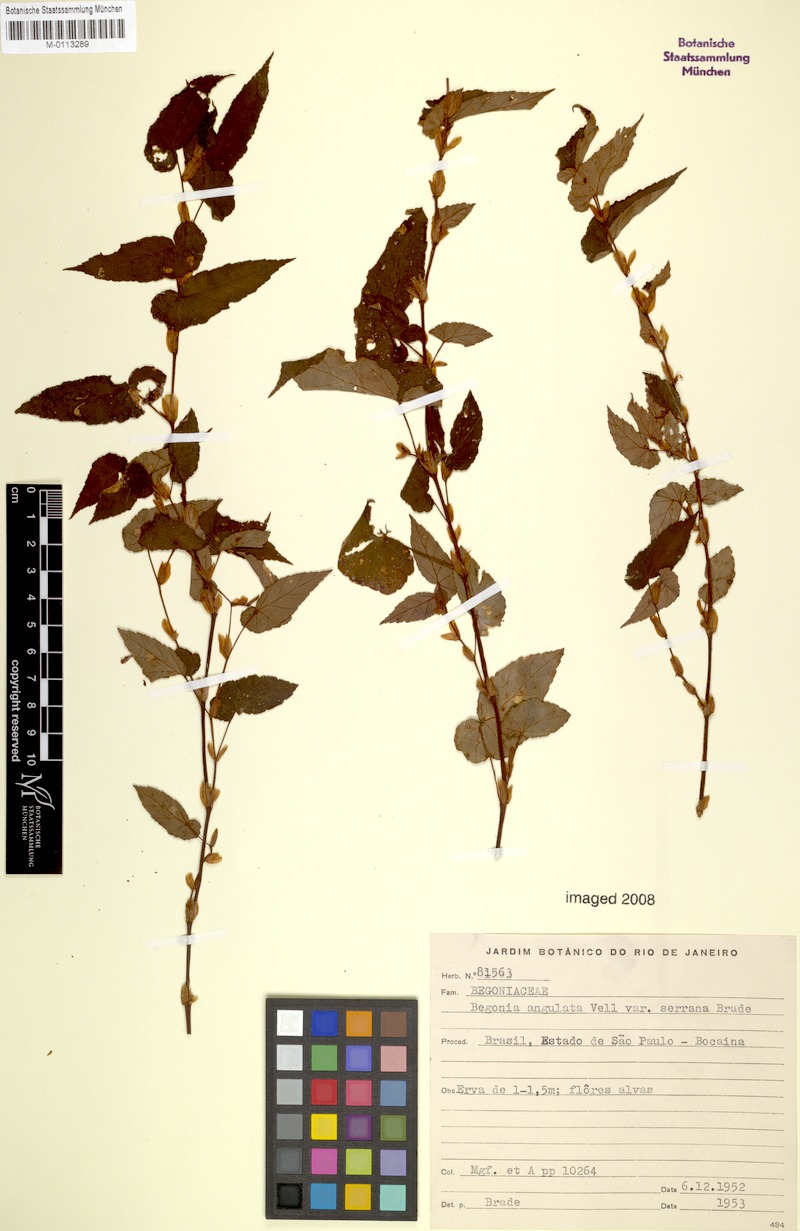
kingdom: Plantae
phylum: Tracheophyta
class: Magnoliopsida
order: Cucurbitales
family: Begoniaceae
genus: Begonia
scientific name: Begonia angulata
